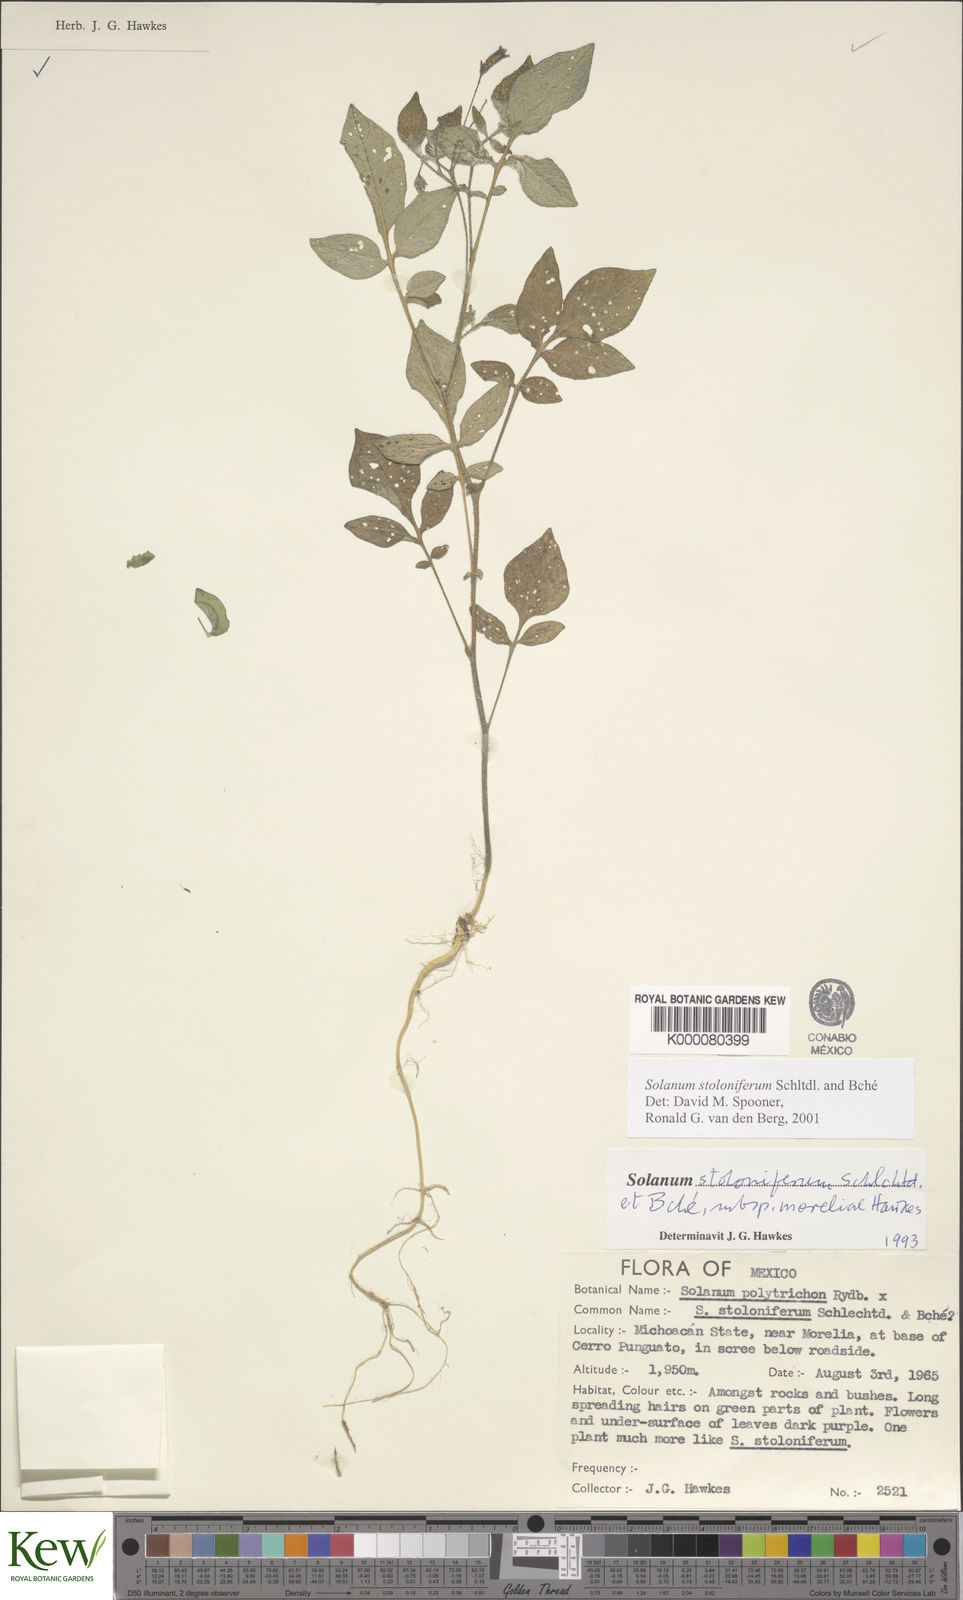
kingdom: Plantae
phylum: Tracheophyta
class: Magnoliopsida
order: Solanales
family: Solanaceae
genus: Solanum
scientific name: Solanum stoloniferum
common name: Fendler's nighshade
